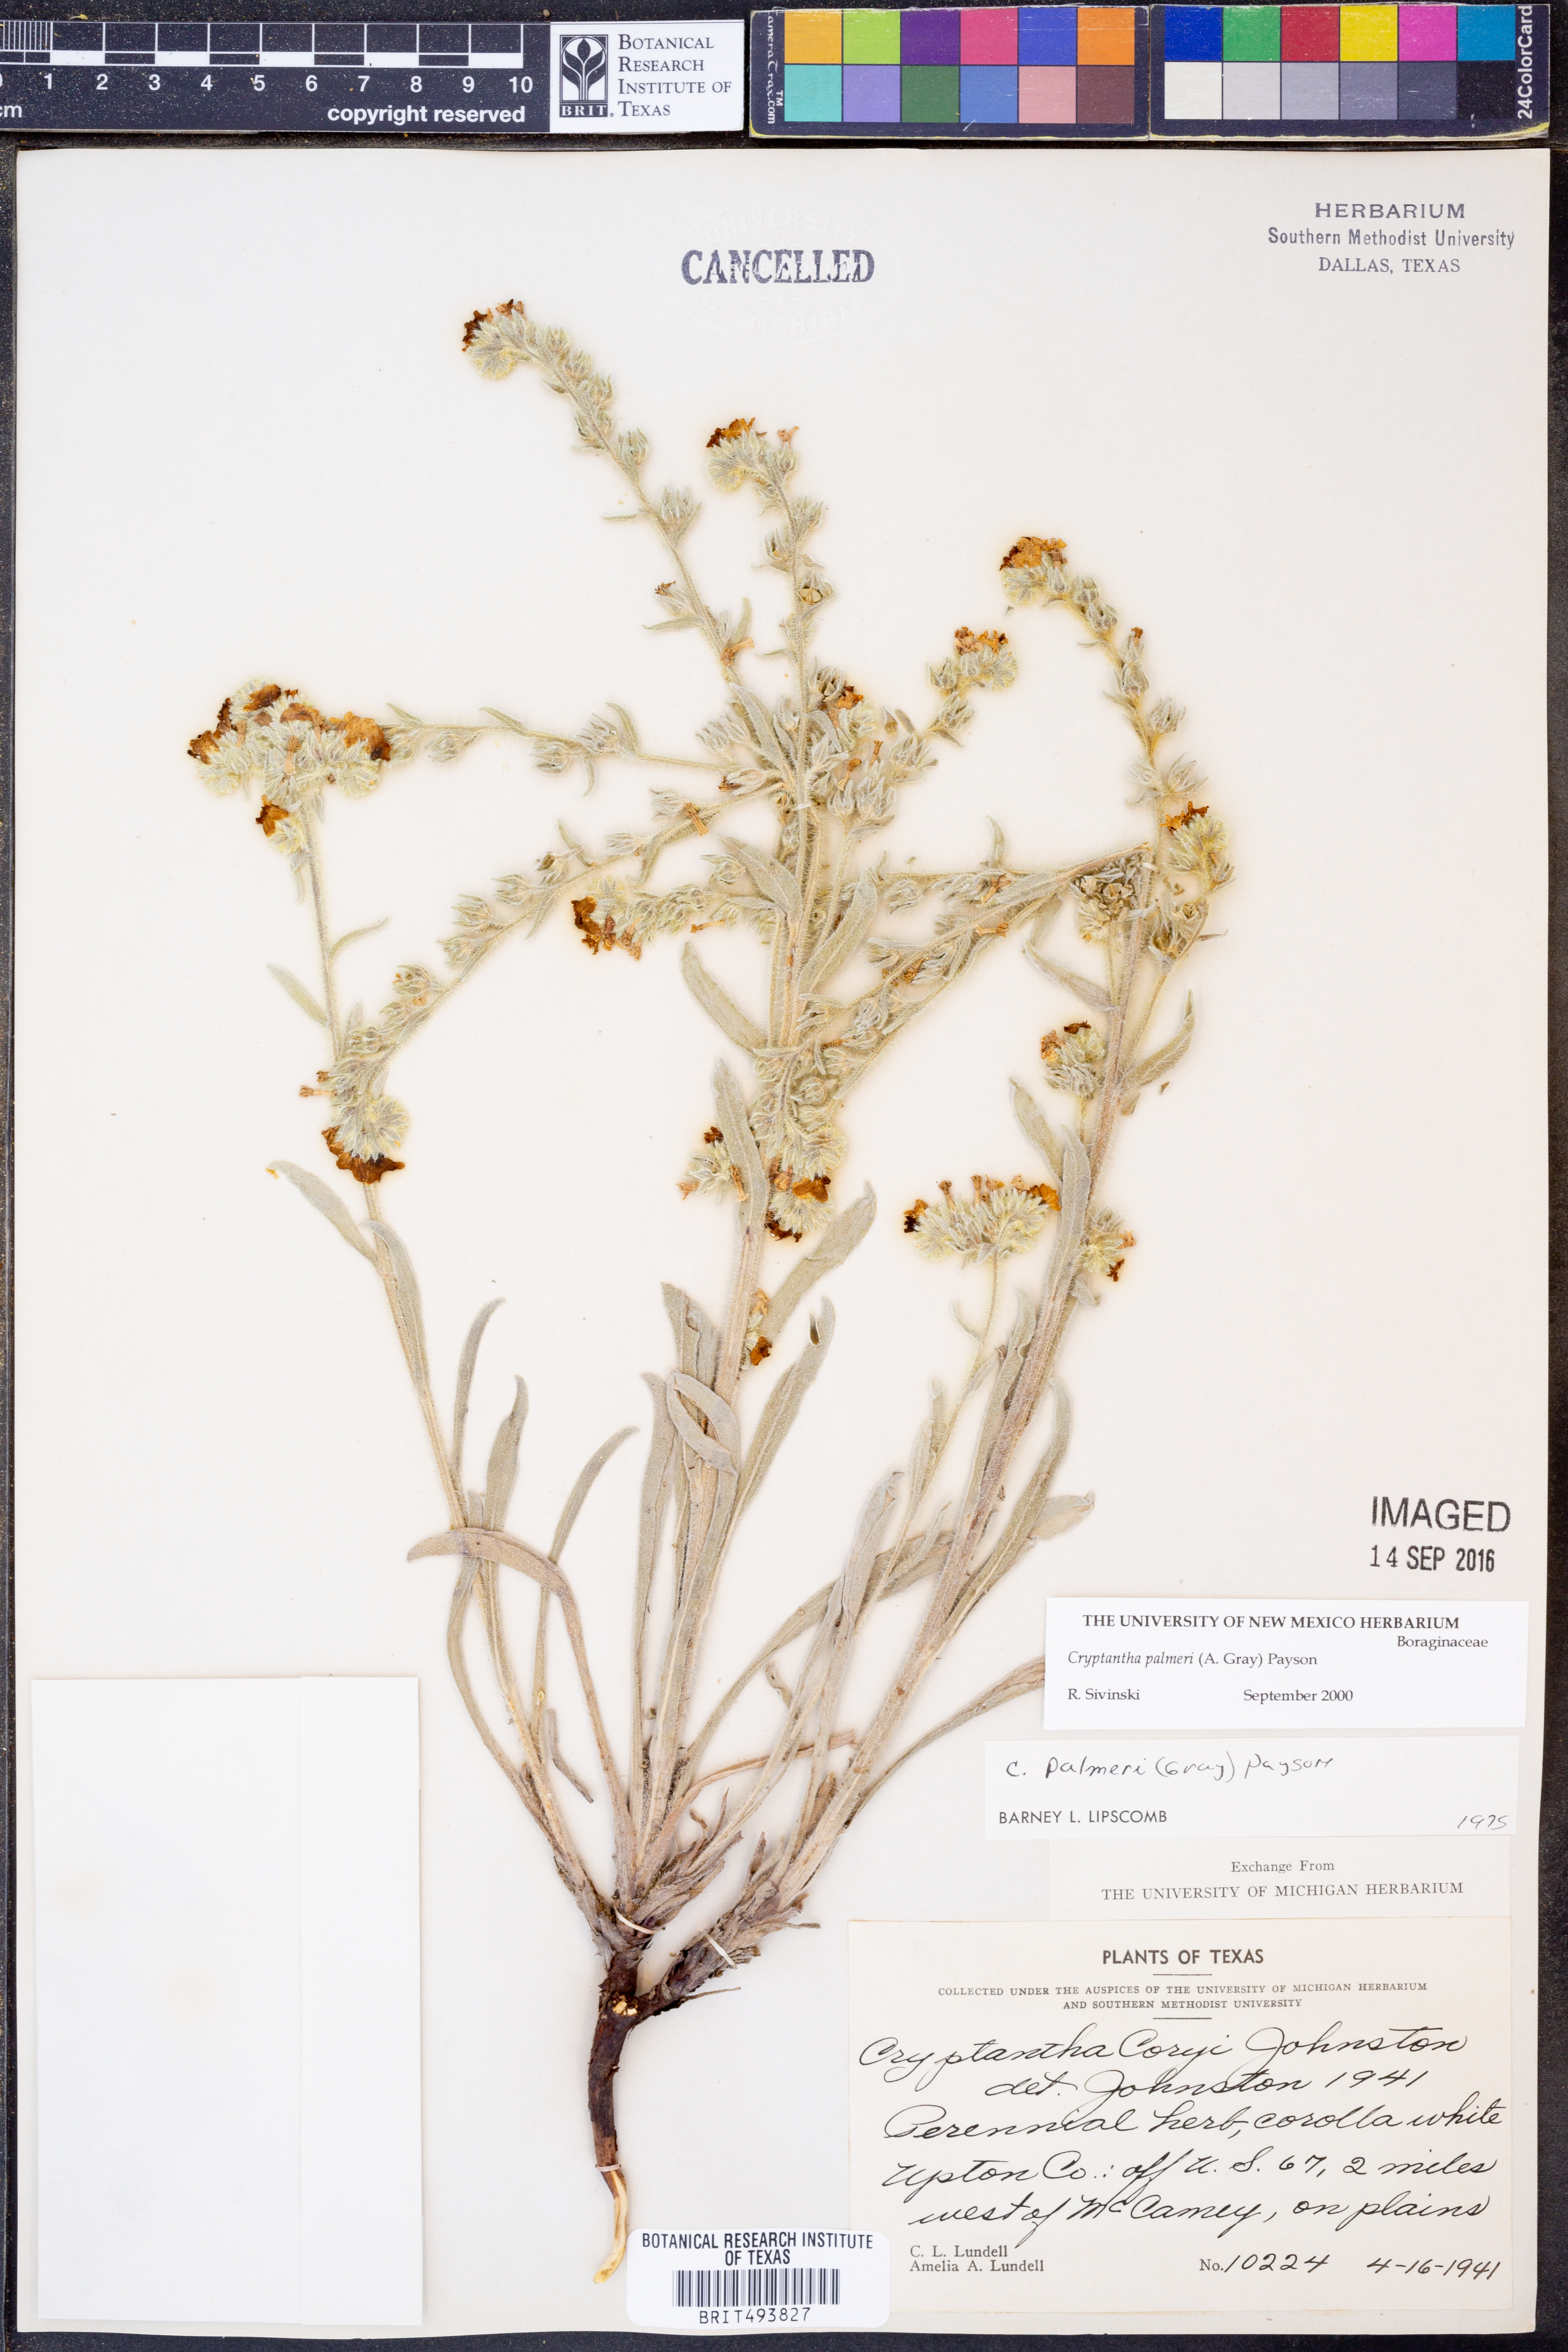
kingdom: Plantae
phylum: Tracheophyta
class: Magnoliopsida
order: Boraginales
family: Boraginaceae
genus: Oreocarya
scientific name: Oreocarya palmeri
